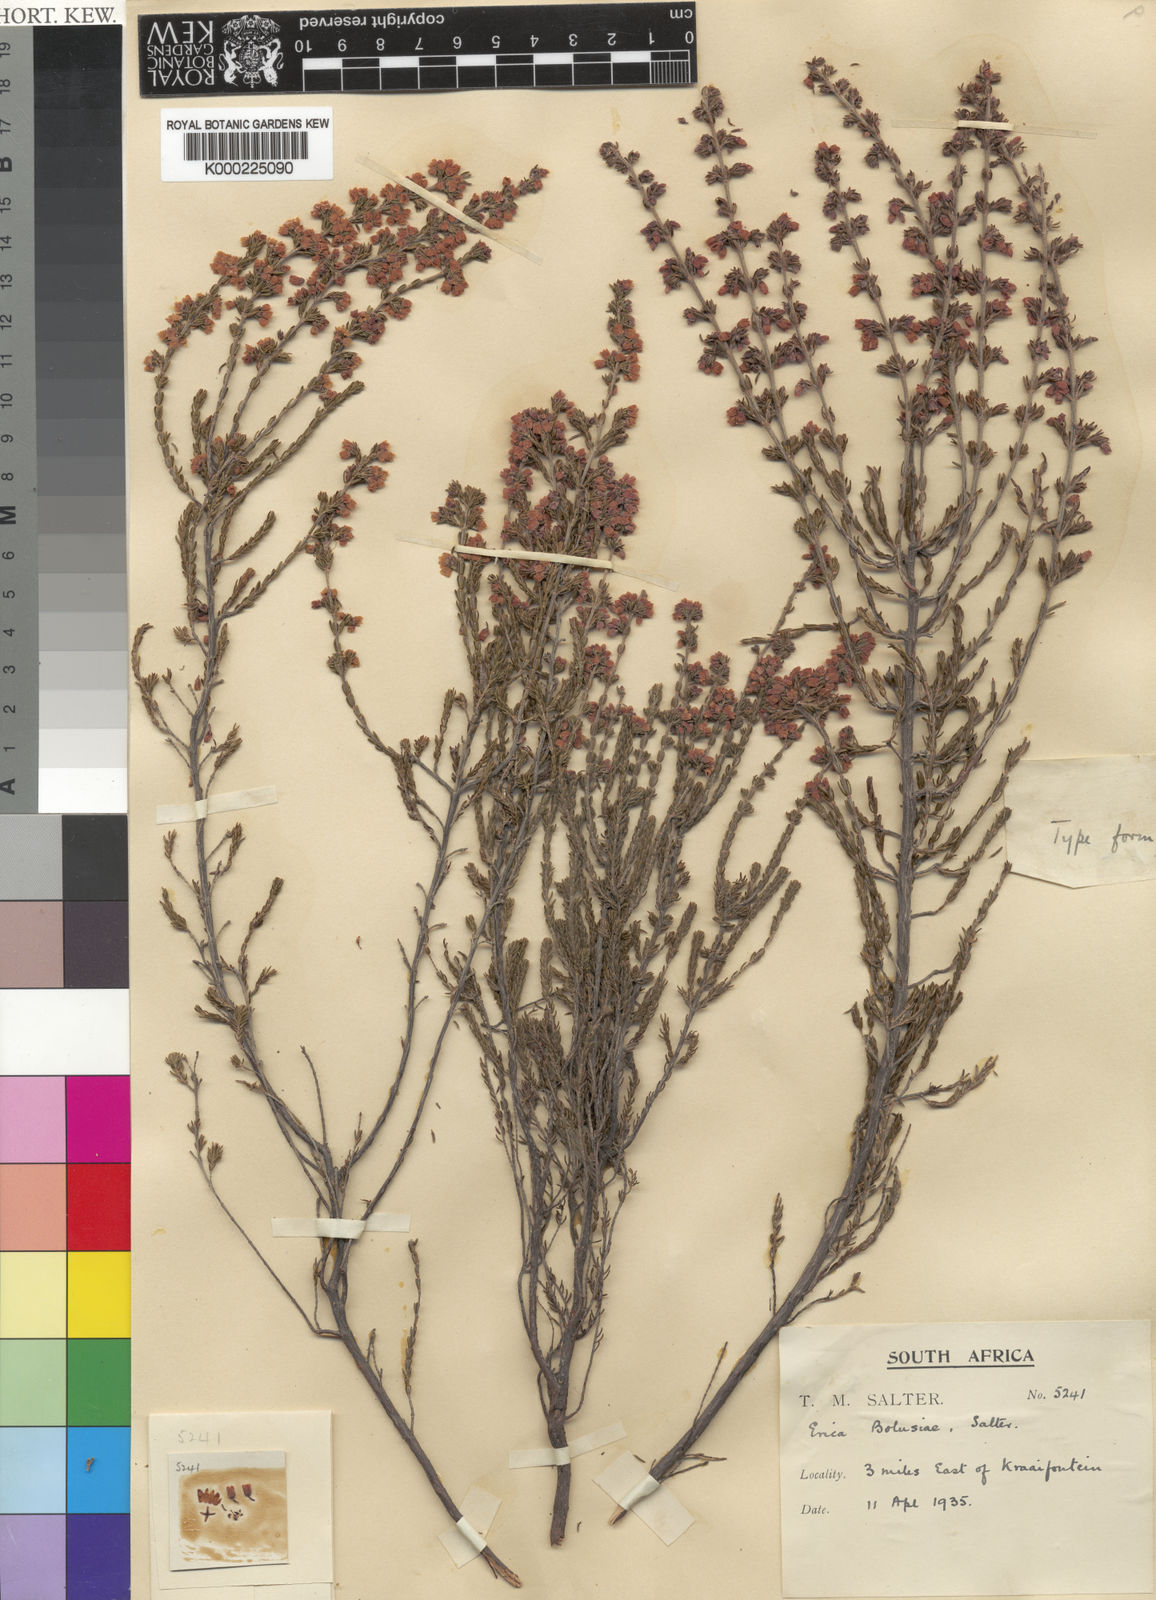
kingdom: Plantae
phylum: Tracheophyta
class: Magnoliopsida
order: Ericales
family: Ericaceae
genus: Erica
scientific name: Erica bolusiae
